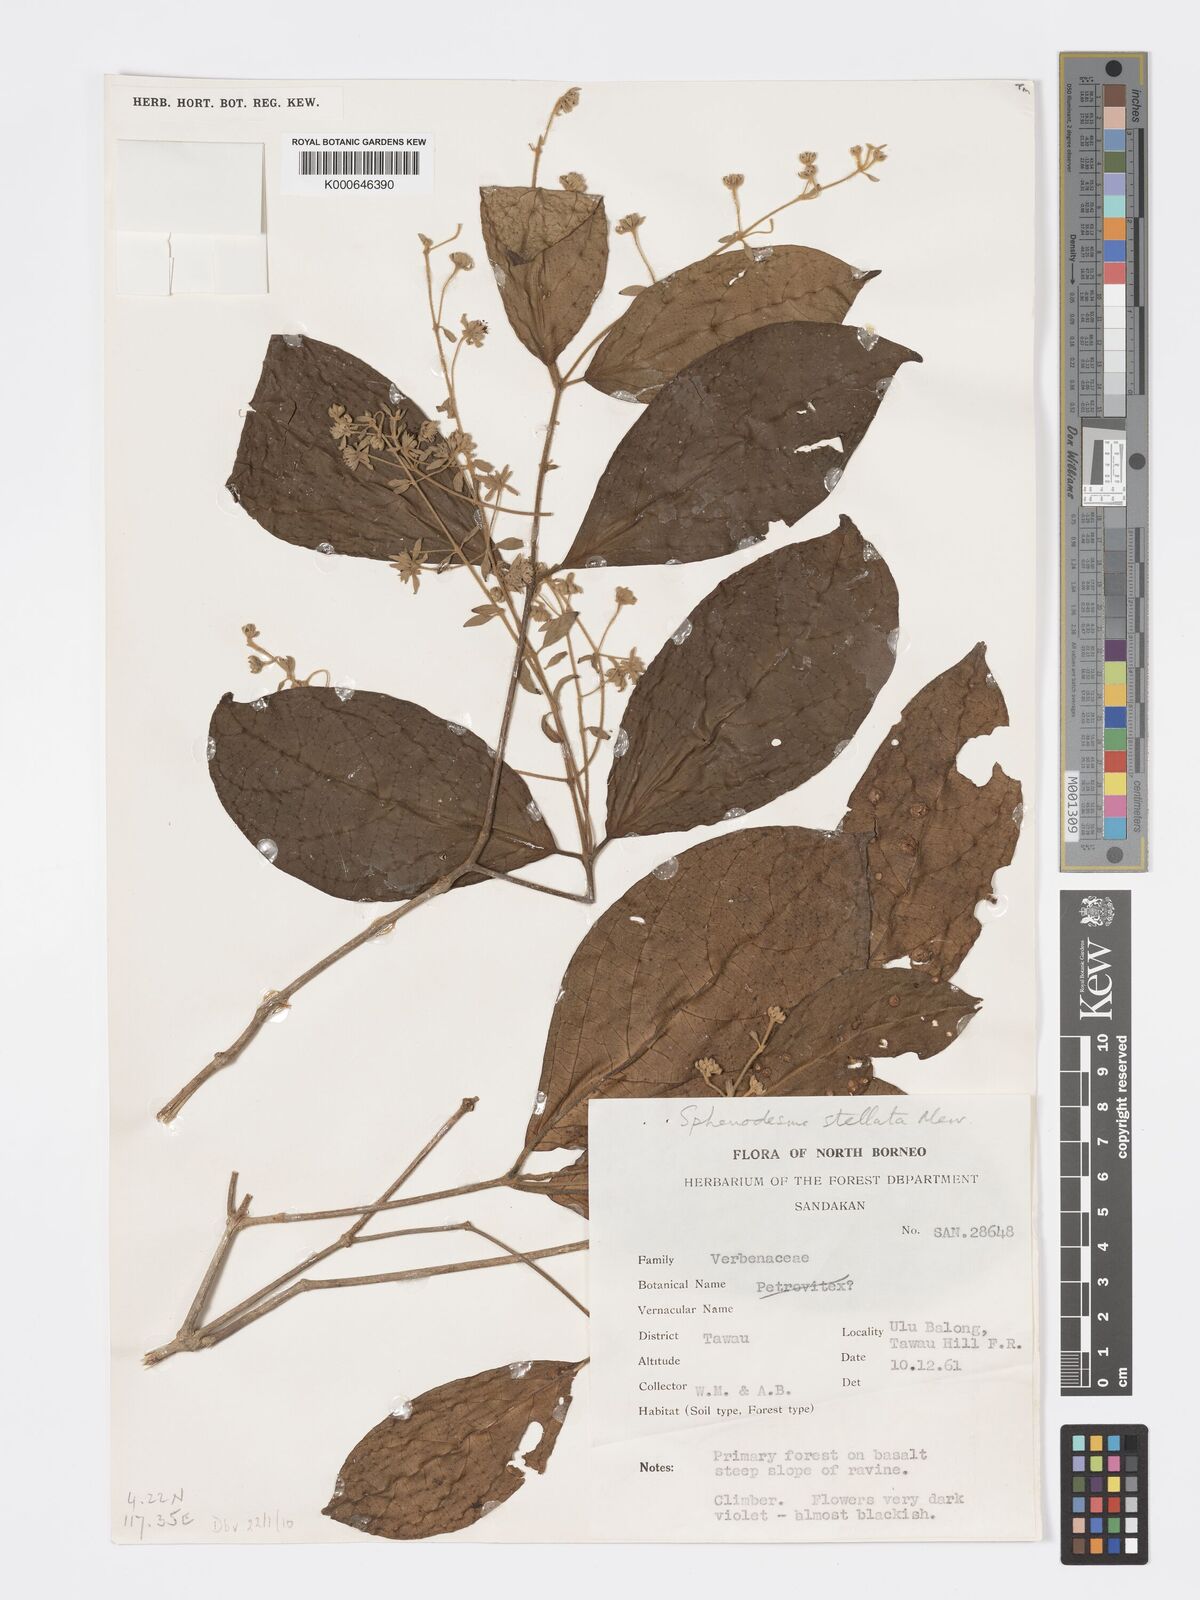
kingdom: Plantae
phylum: Tracheophyta
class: Magnoliopsida
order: Lamiales
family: Lamiaceae
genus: Sphenodesme
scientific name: Sphenodesme stellata
